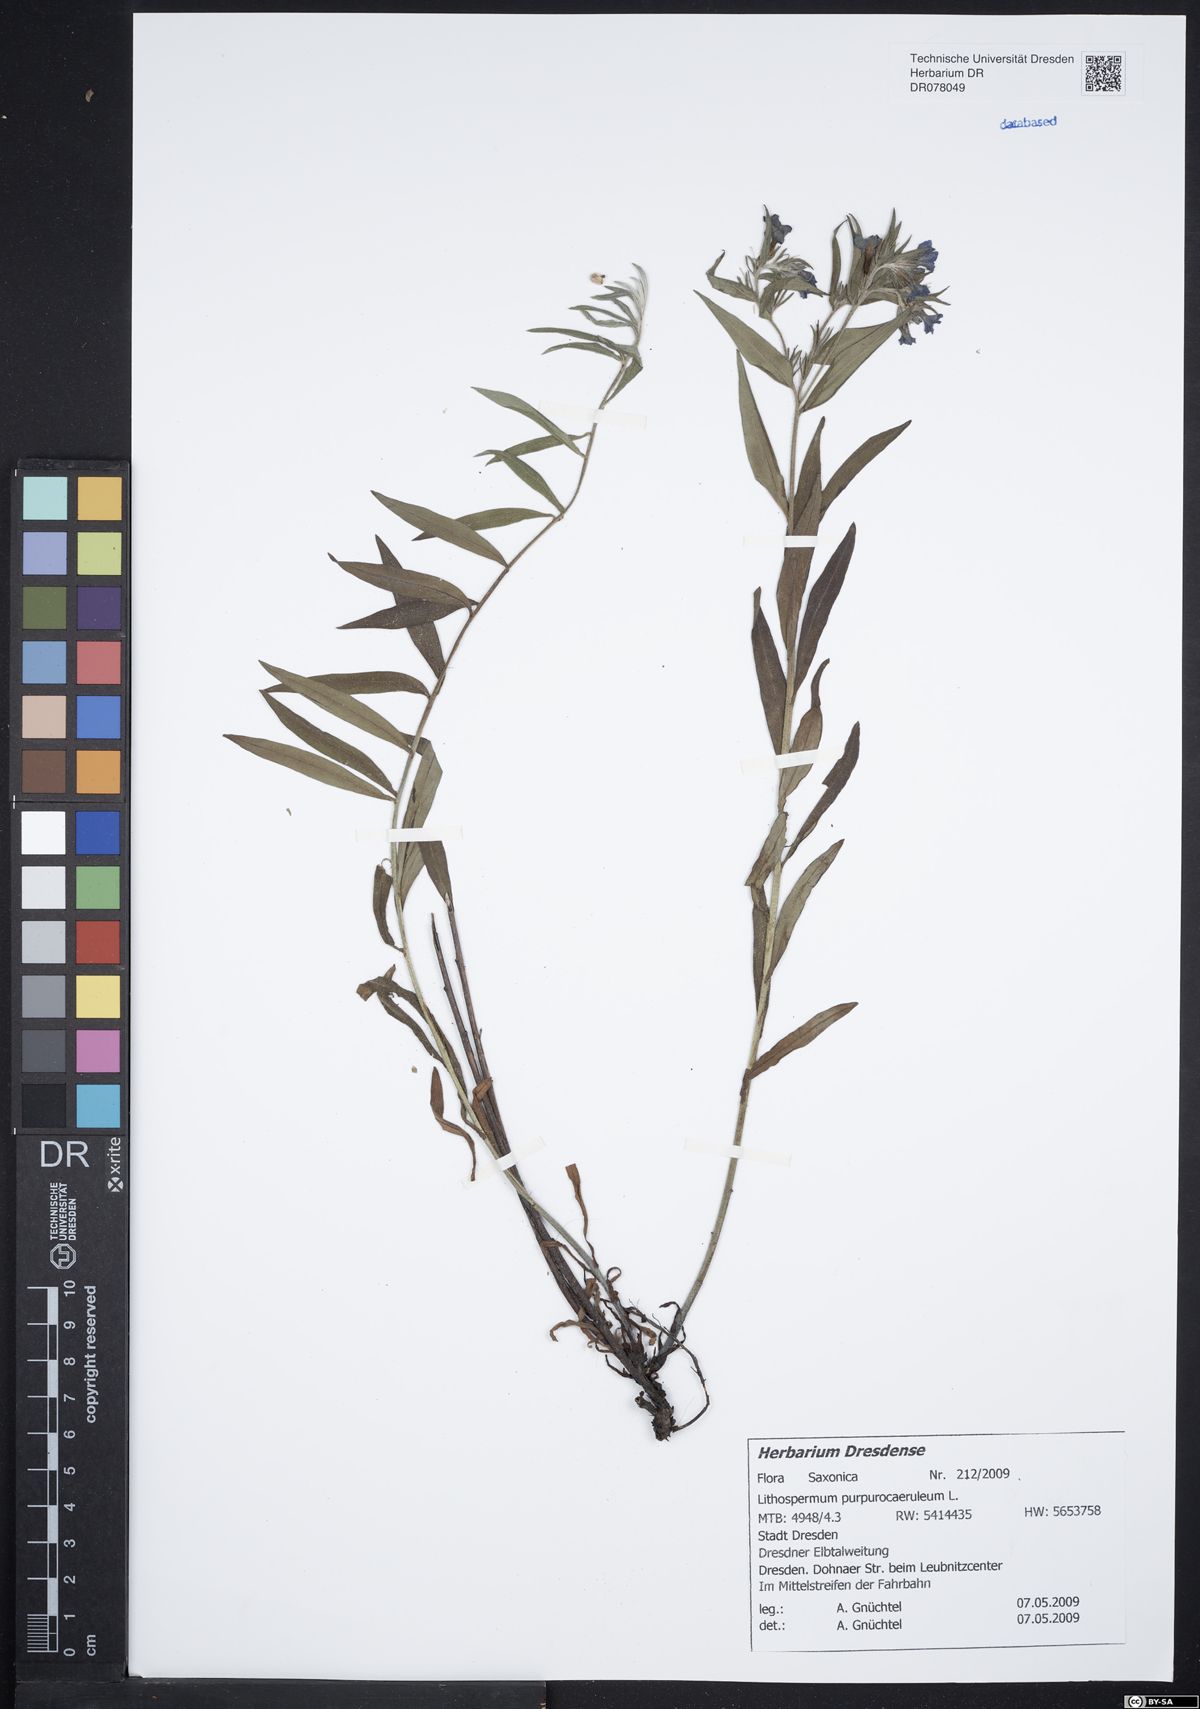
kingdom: Plantae
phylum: Tracheophyta
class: Magnoliopsida
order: Boraginales
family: Boraginaceae
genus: Aegonychon
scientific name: Aegonychon purpurocaeruleum
